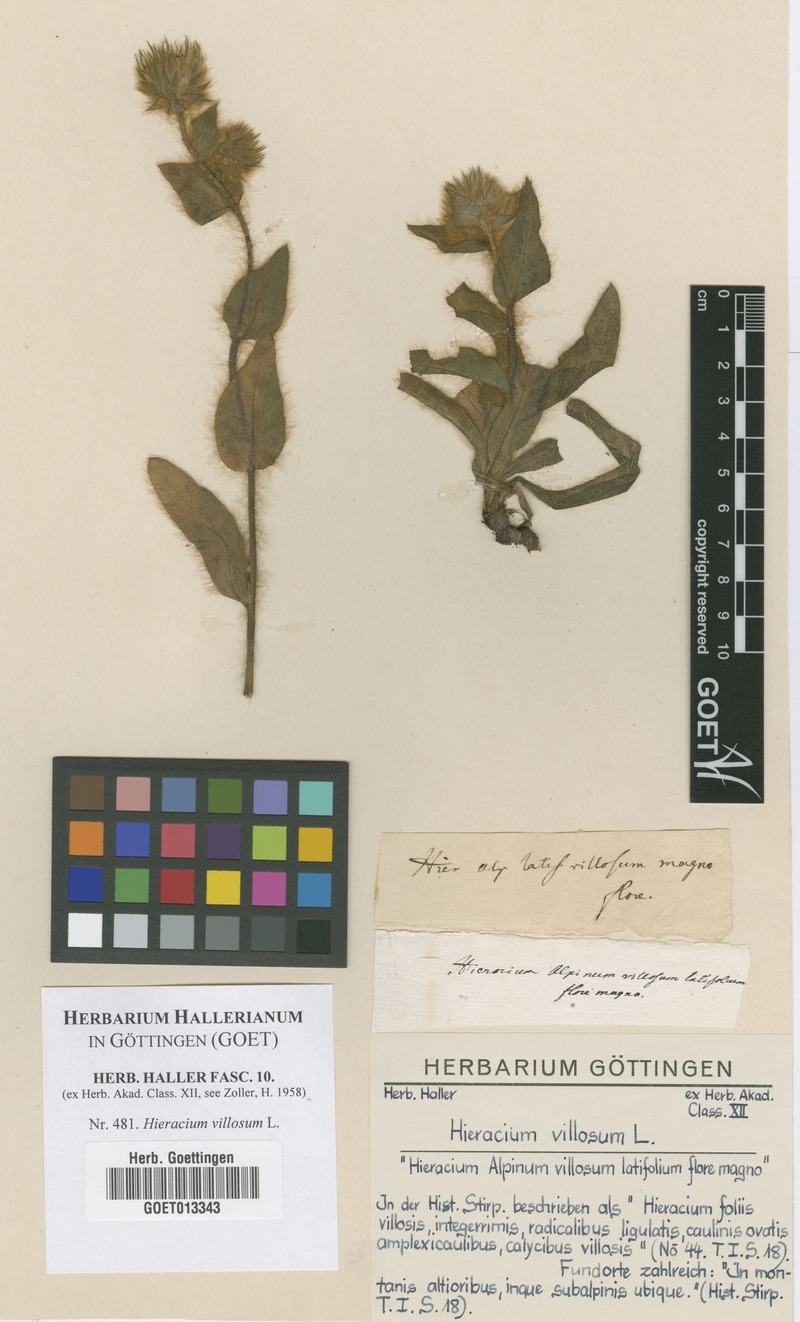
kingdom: Plantae
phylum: Tracheophyta
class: Magnoliopsida
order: Asterales
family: Asteraceae
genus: Hieracium
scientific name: Hieracium villosum
